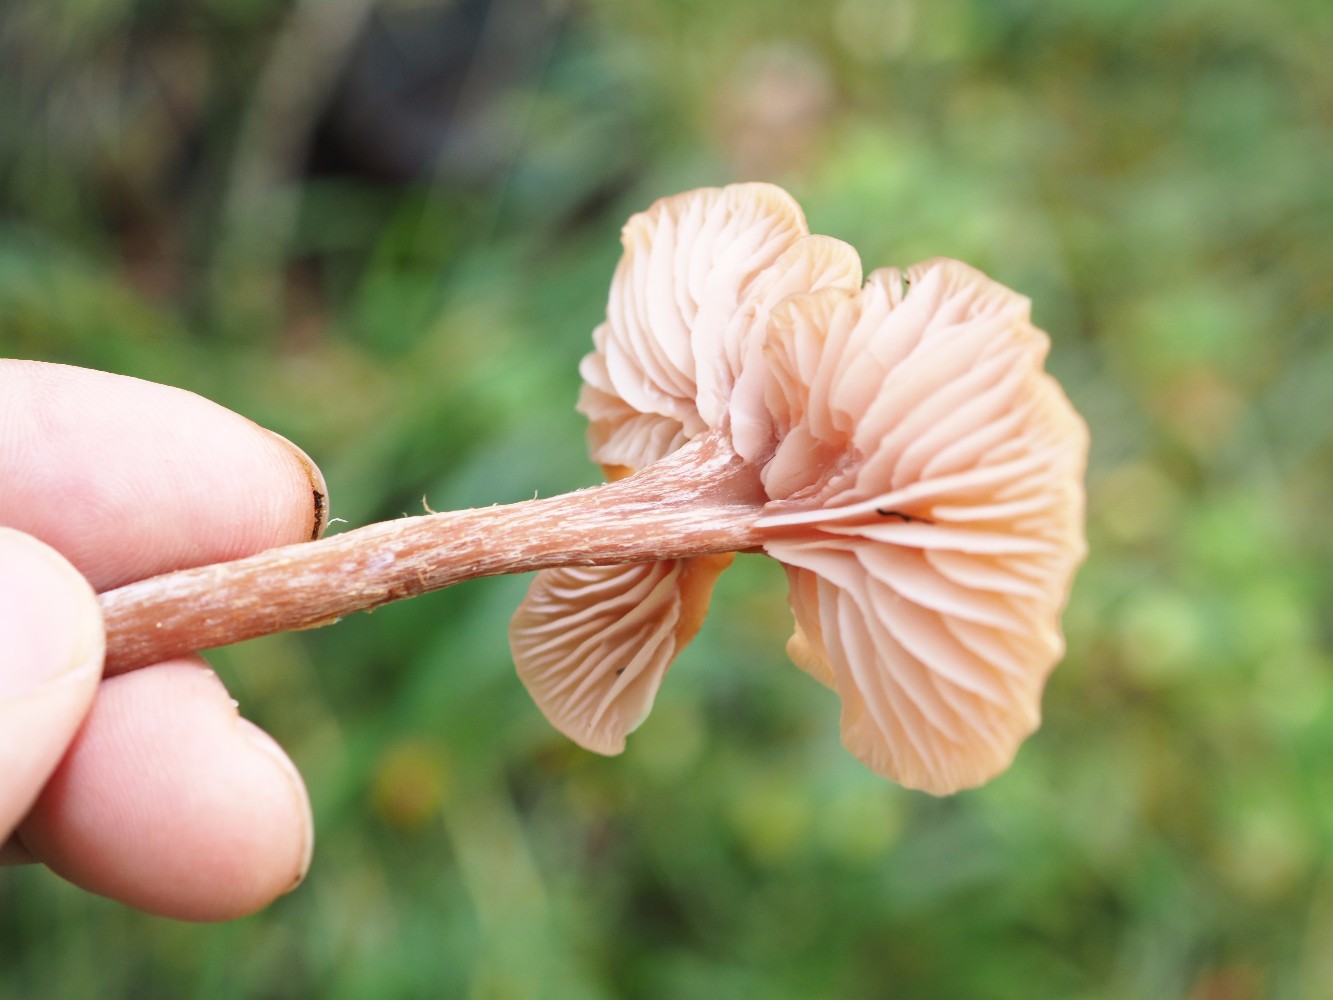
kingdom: Fungi
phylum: Basidiomycota
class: Agaricomycetes
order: Agaricales
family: Hydnangiaceae
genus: Laccaria
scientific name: Laccaria proxima
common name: stor ametysthat
